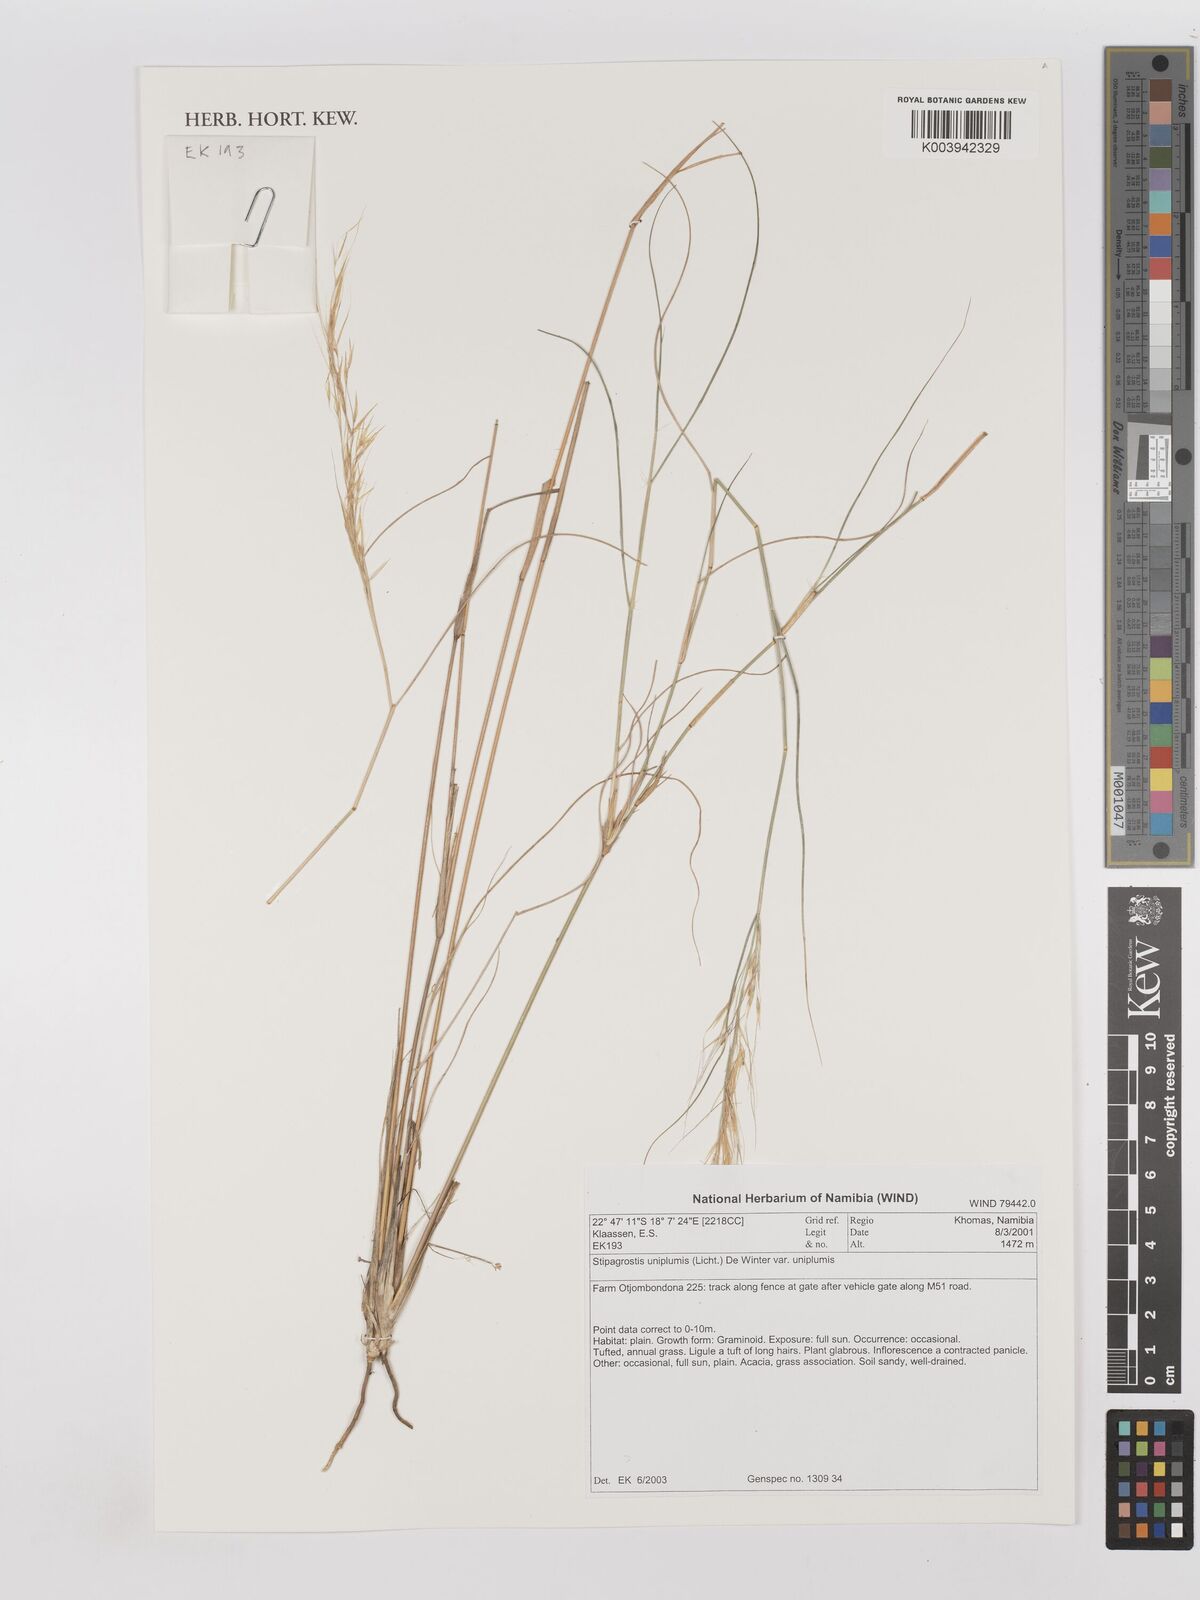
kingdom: Plantae
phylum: Tracheophyta
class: Liliopsida
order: Poales
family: Poaceae
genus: Stipagrostis
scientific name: Stipagrostis uniplumis
